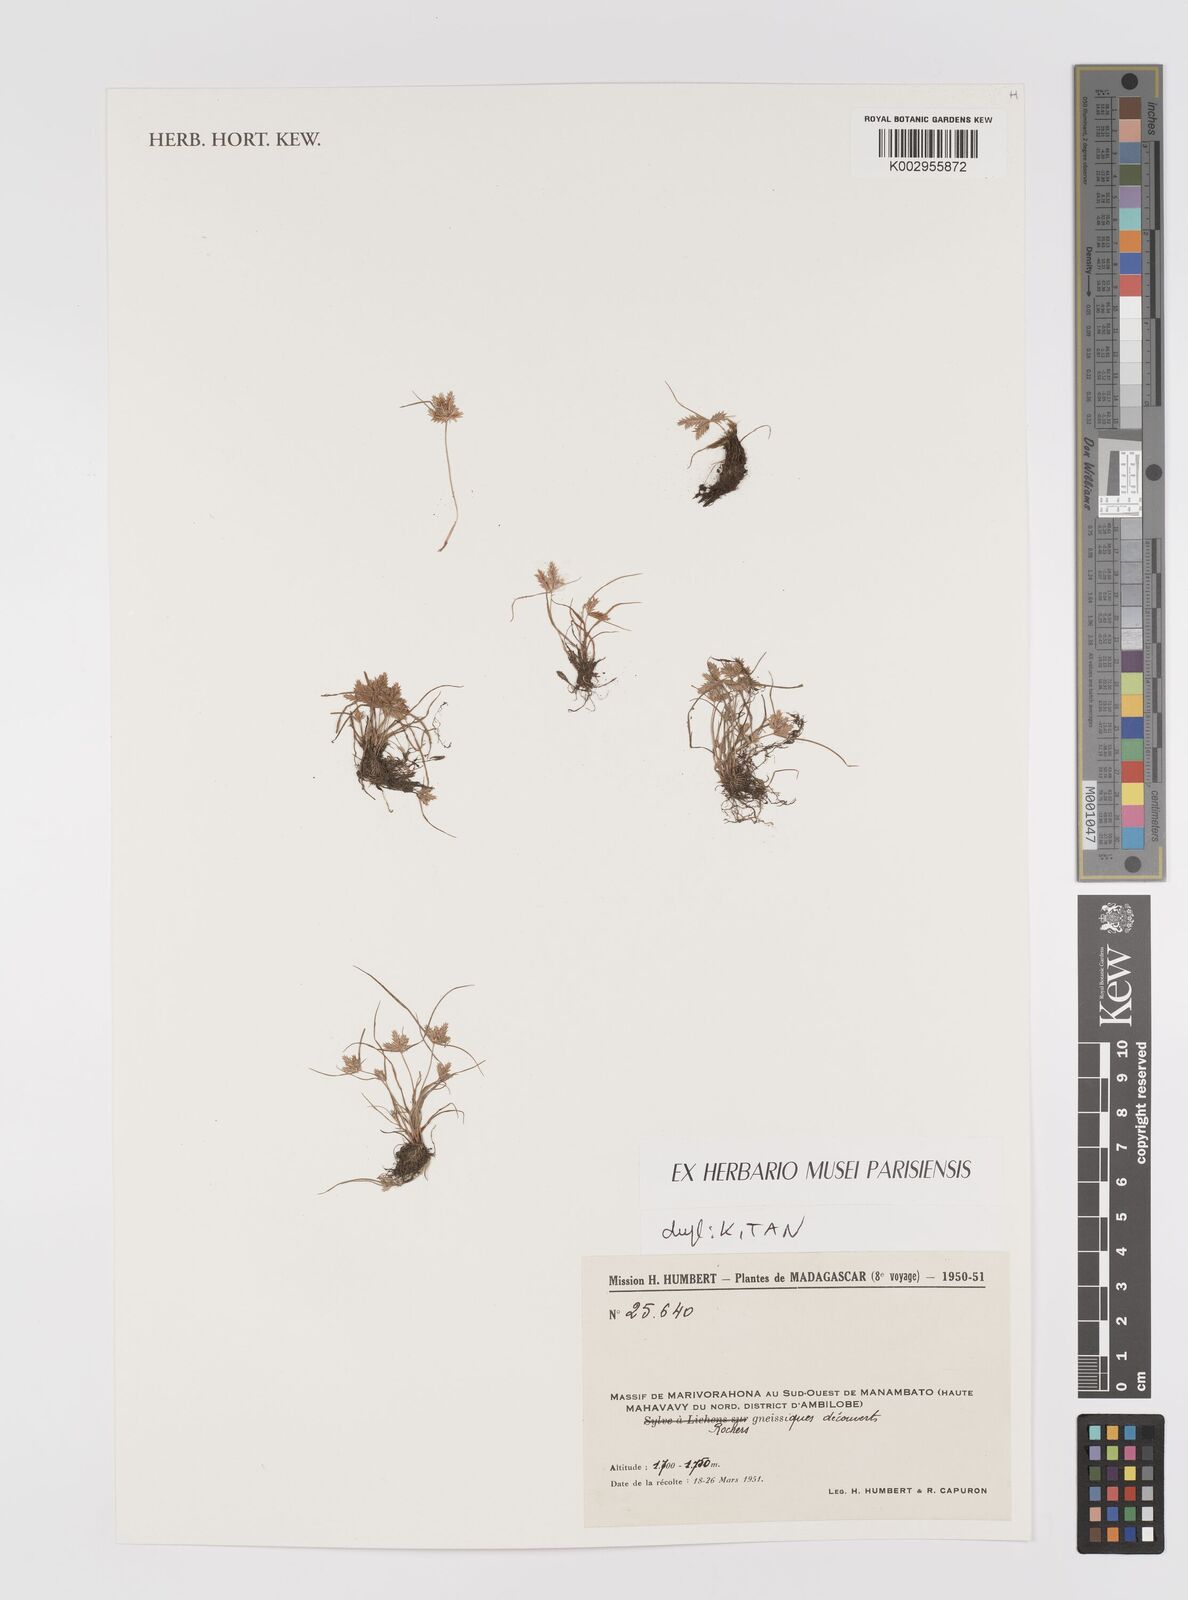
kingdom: Plantae
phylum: Tracheophyta
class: Liliopsida
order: Poales
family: Cyperaceae
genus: Cyperus
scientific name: Cyperus
